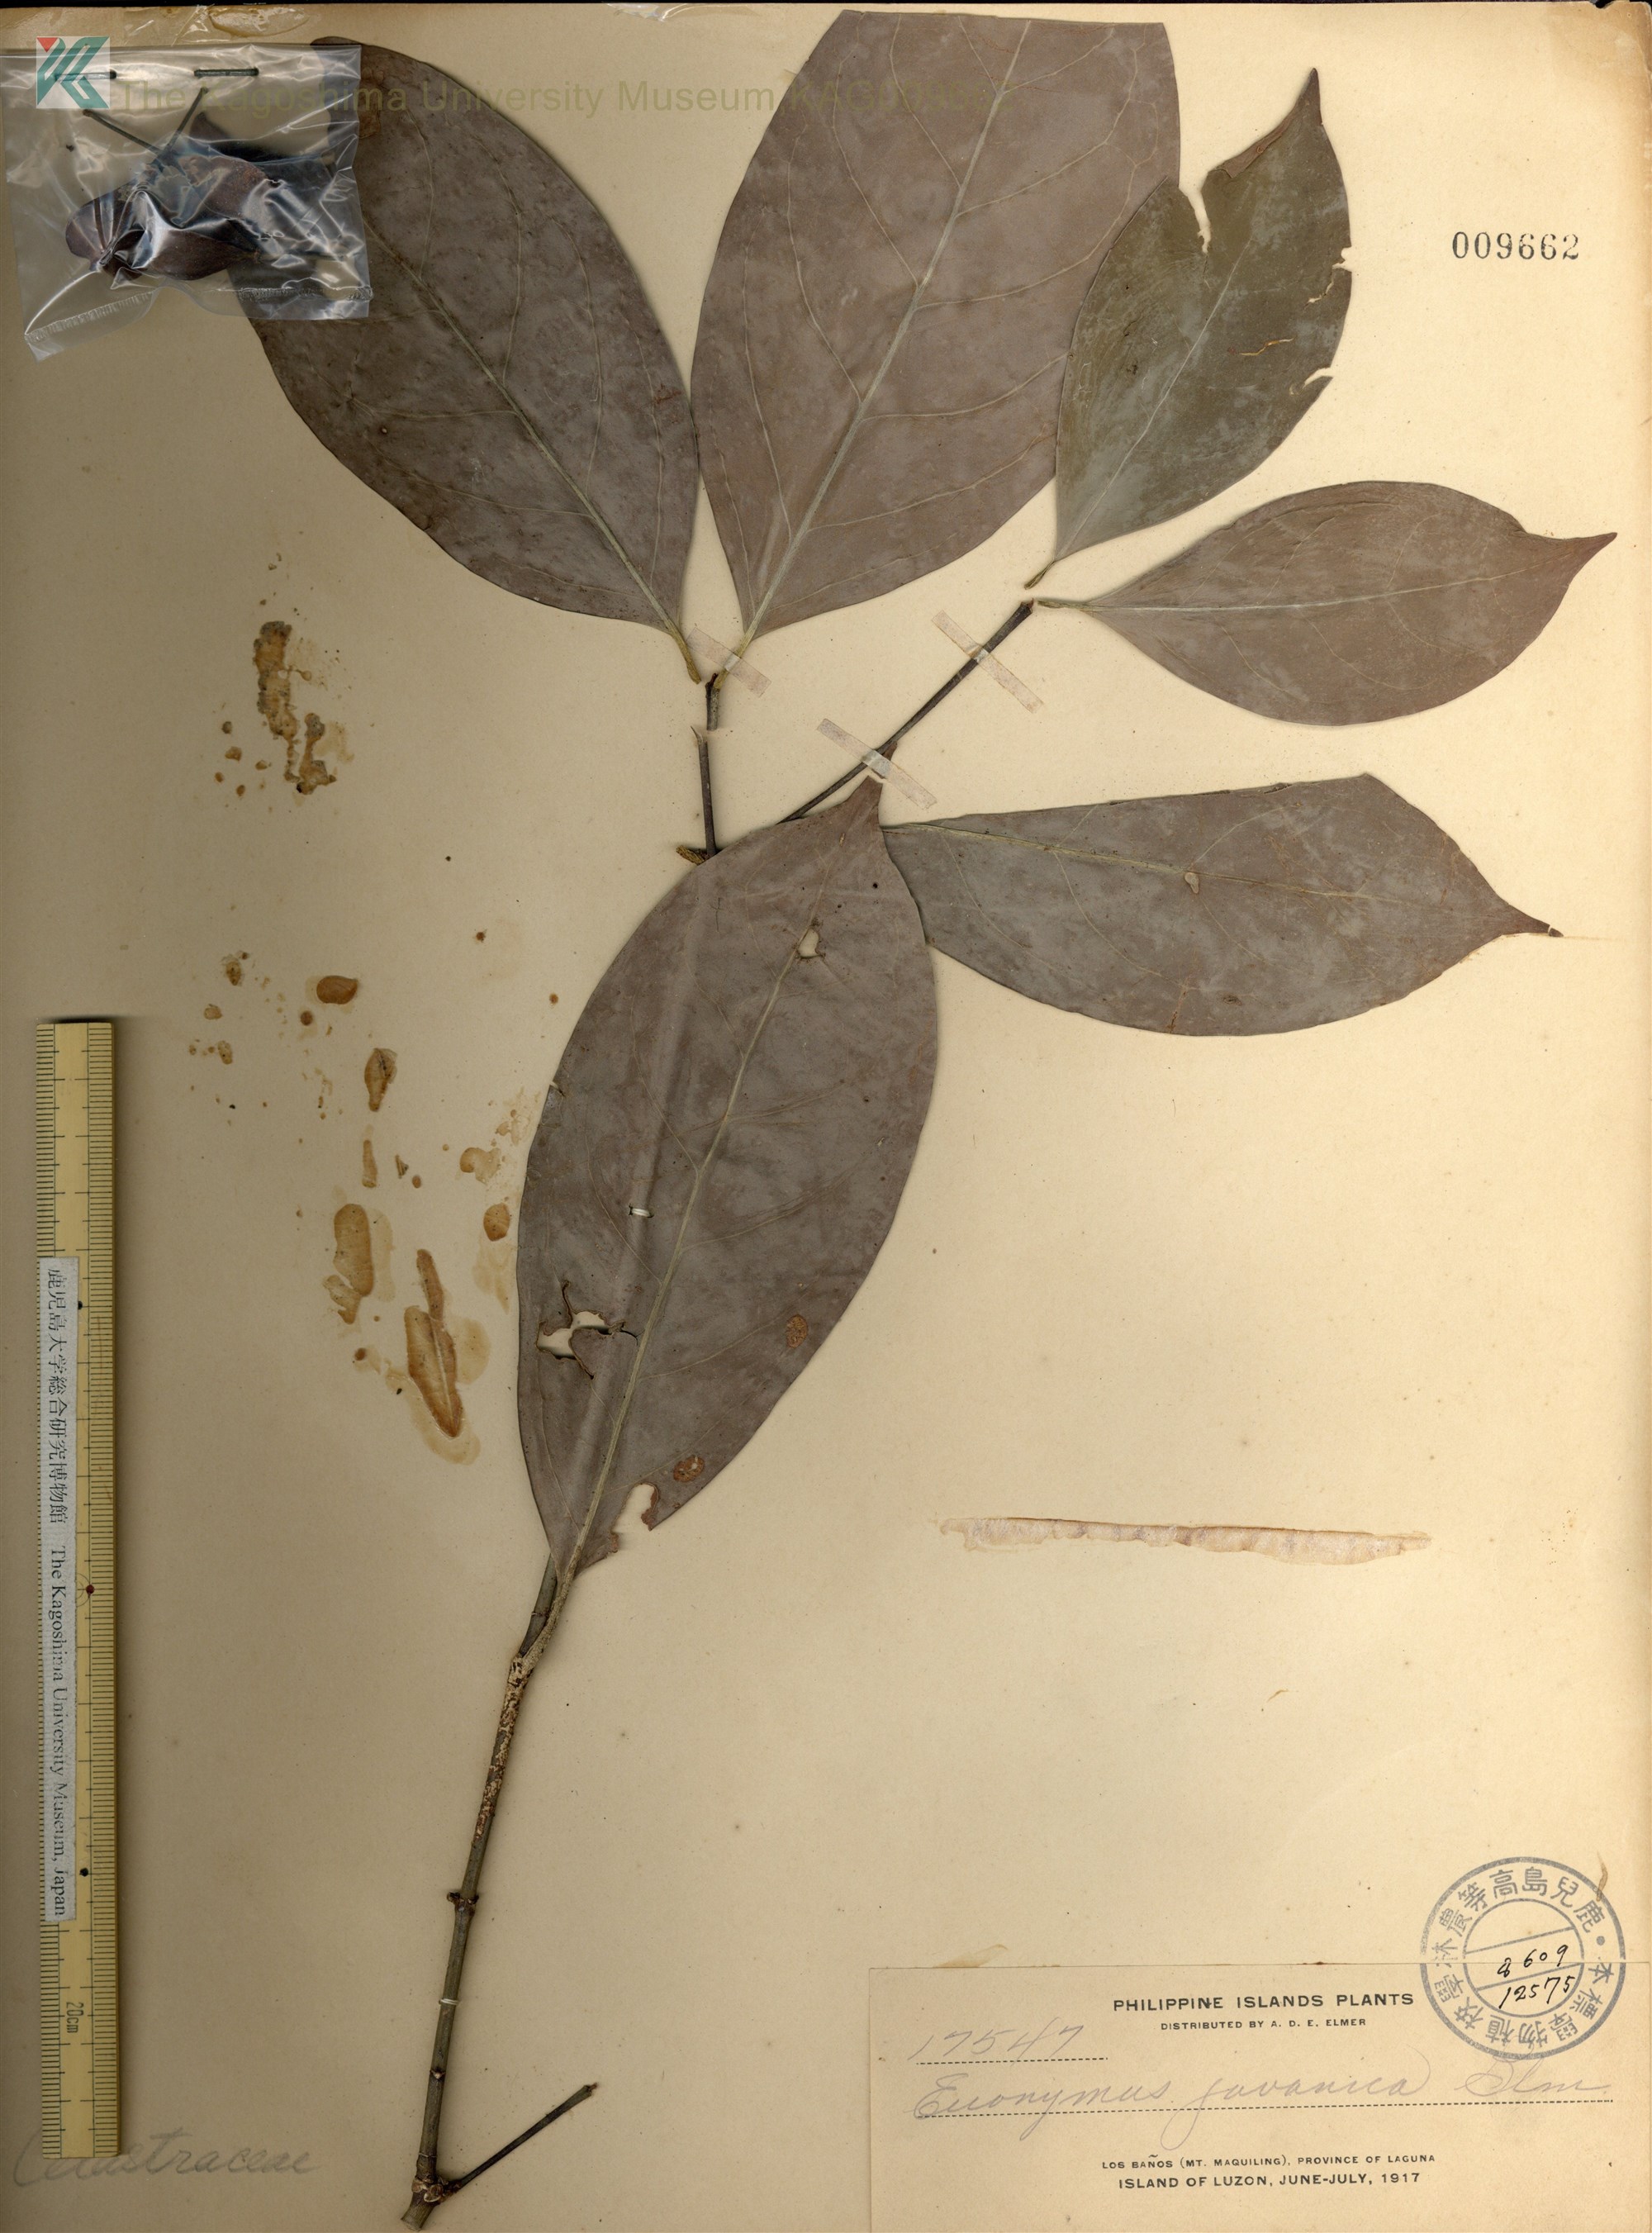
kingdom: Plantae
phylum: Tracheophyta
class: Magnoliopsida
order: Celastrales
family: Celastraceae
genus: Euonymus
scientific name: Euonymus indicus
